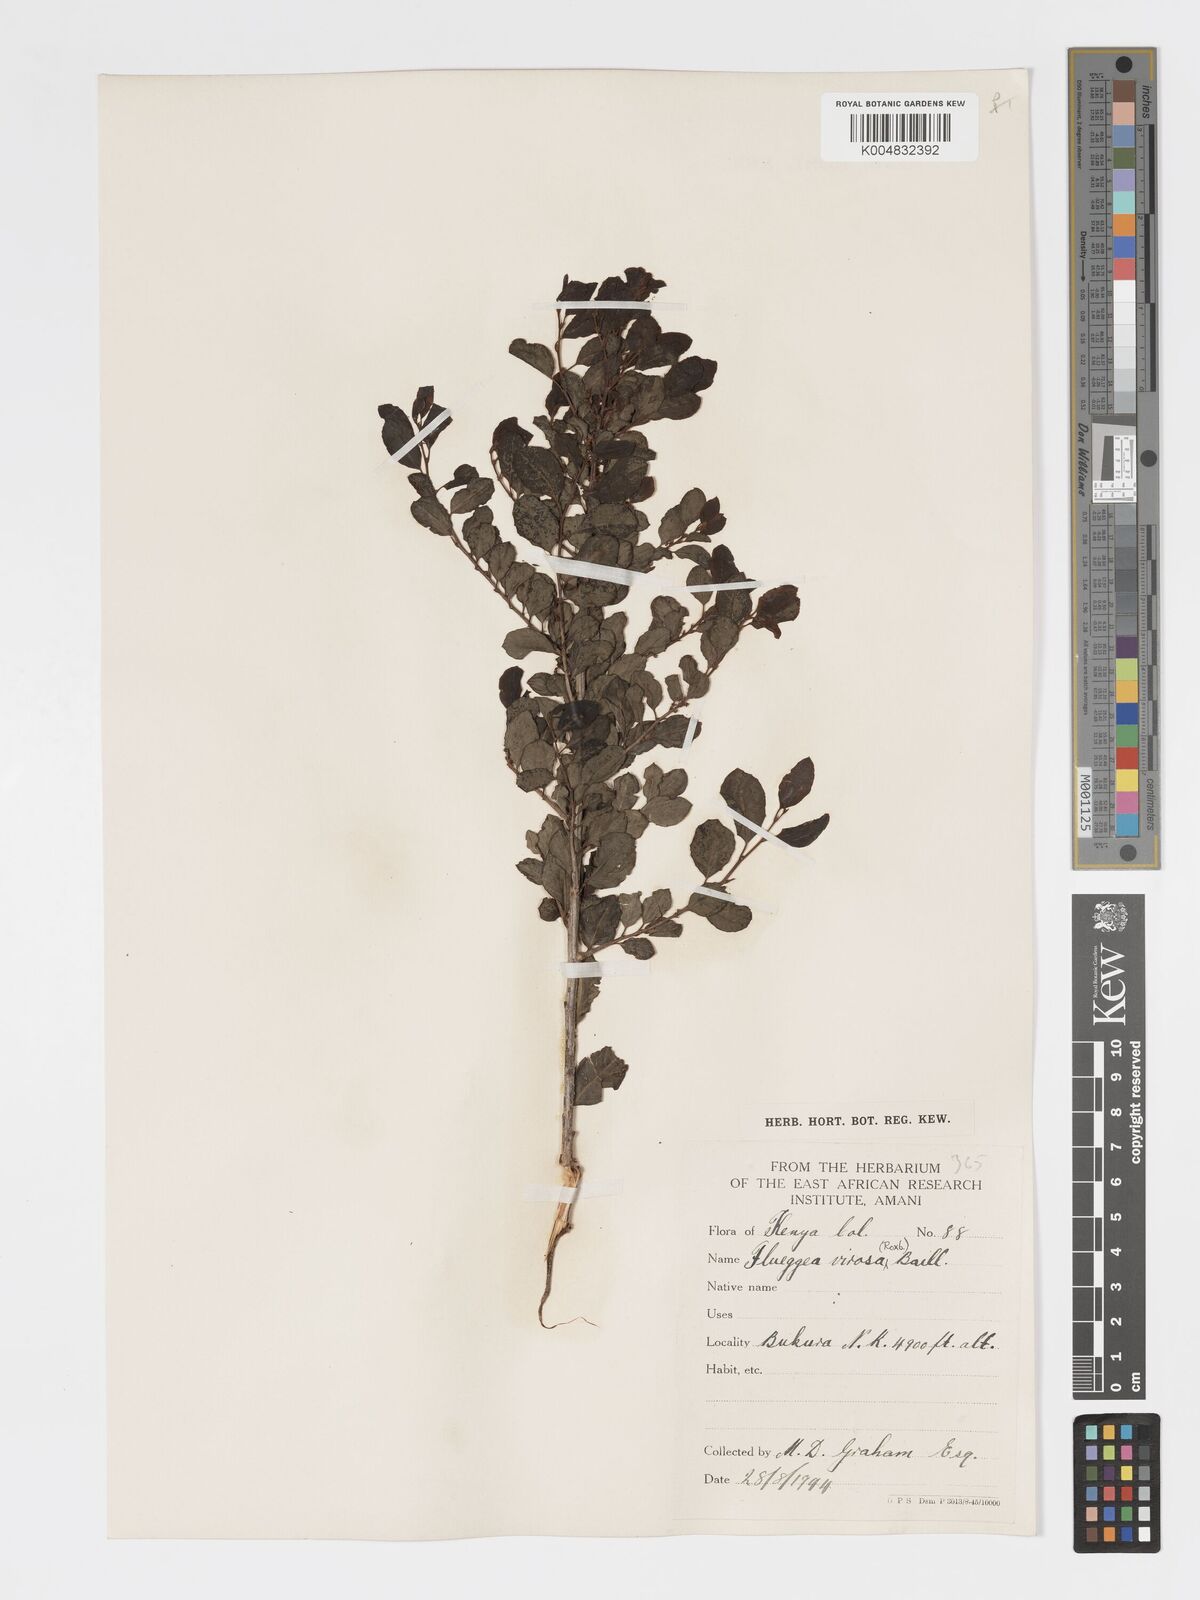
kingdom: Plantae
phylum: Tracheophyta
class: Magnoliopsida
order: Malpighiales
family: Phyllanthaceae
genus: Flueggea
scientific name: Flueggea virosa
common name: Common bushweed
